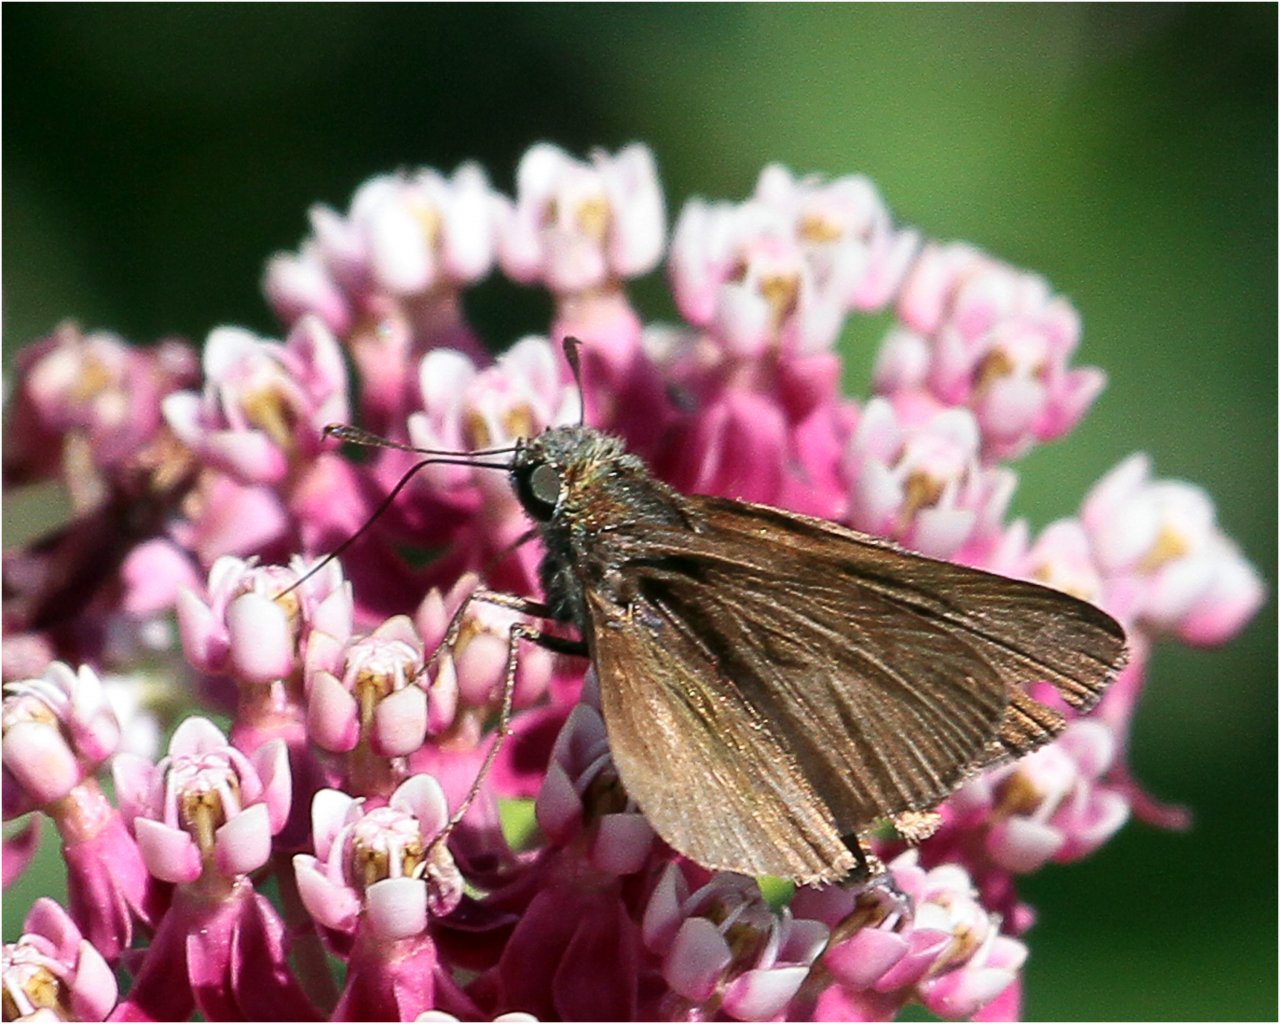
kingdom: Animalia
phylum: Arthropoda
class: Insecta
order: Lepidoptera
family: Hesperiidae
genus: Euphyes
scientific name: Euphyes vestris
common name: Dun Skipper
